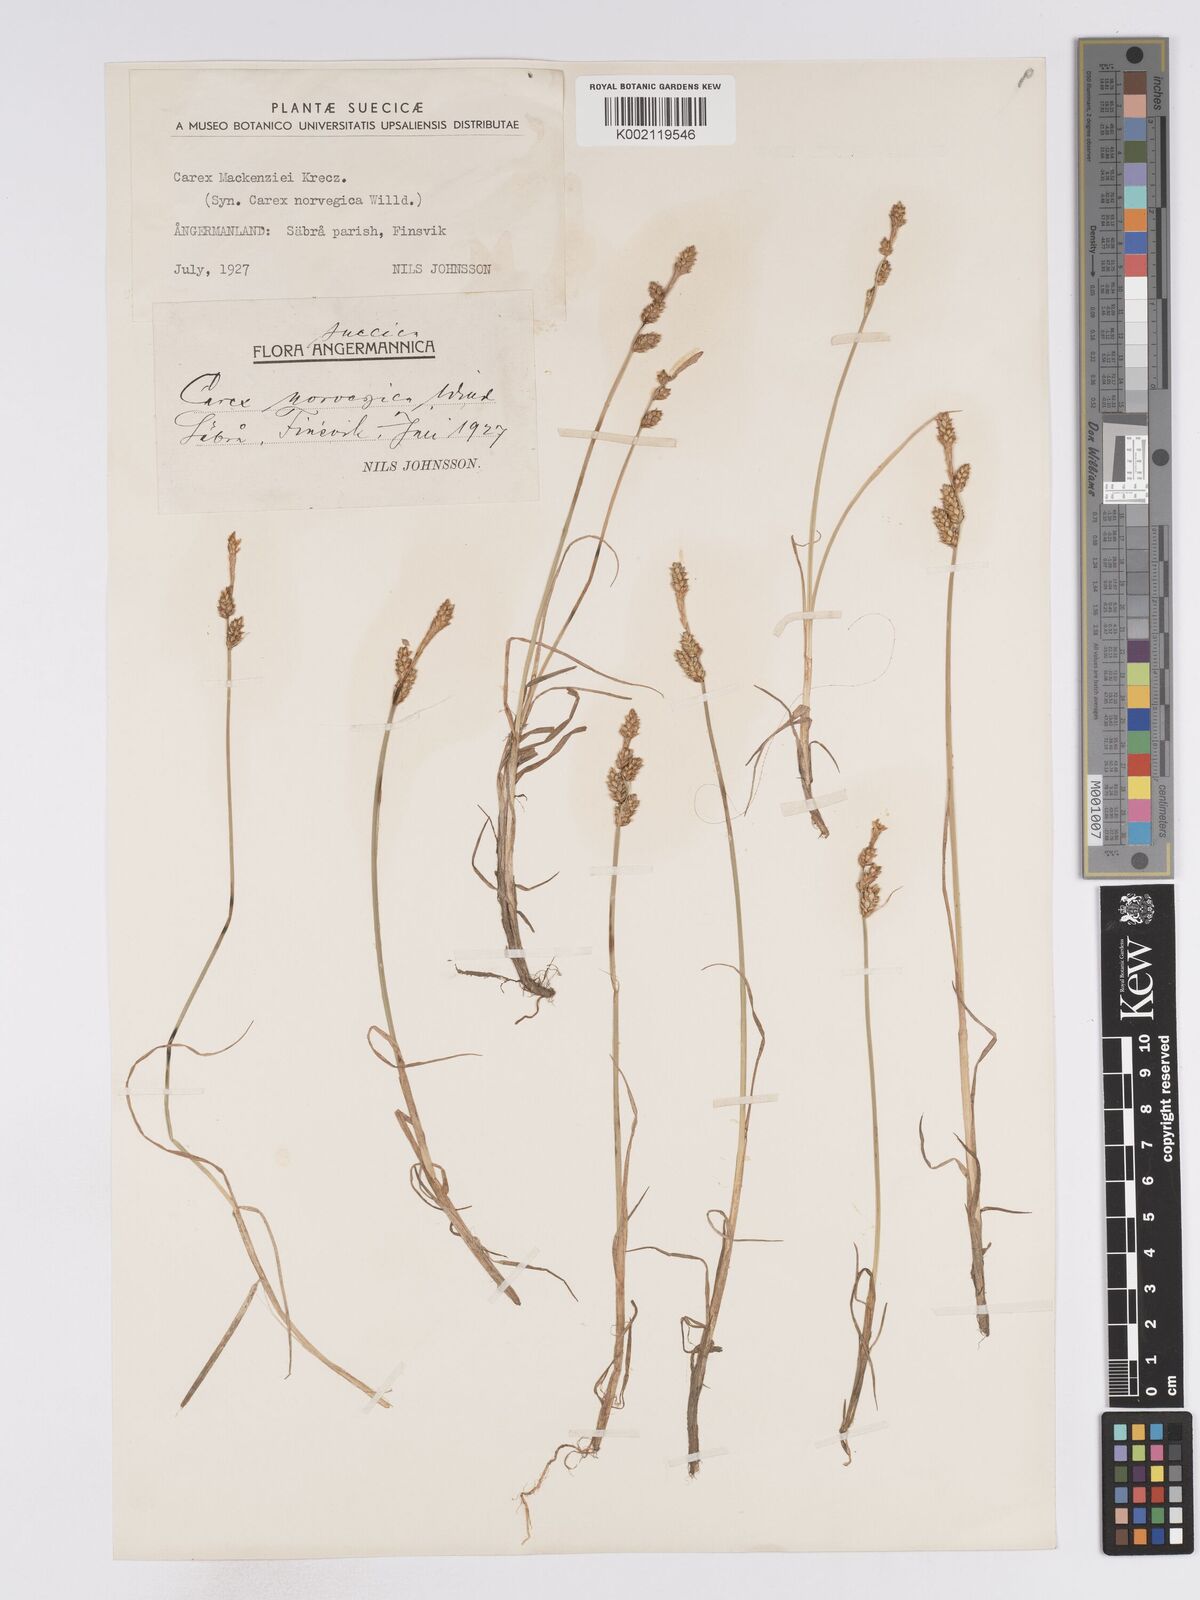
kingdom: Plantae
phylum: Tracheophyta
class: Liliopsida
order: Poales
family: Cyperaceae
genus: Carex
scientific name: Carex mackenziei
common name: Mackenzie's sedge
